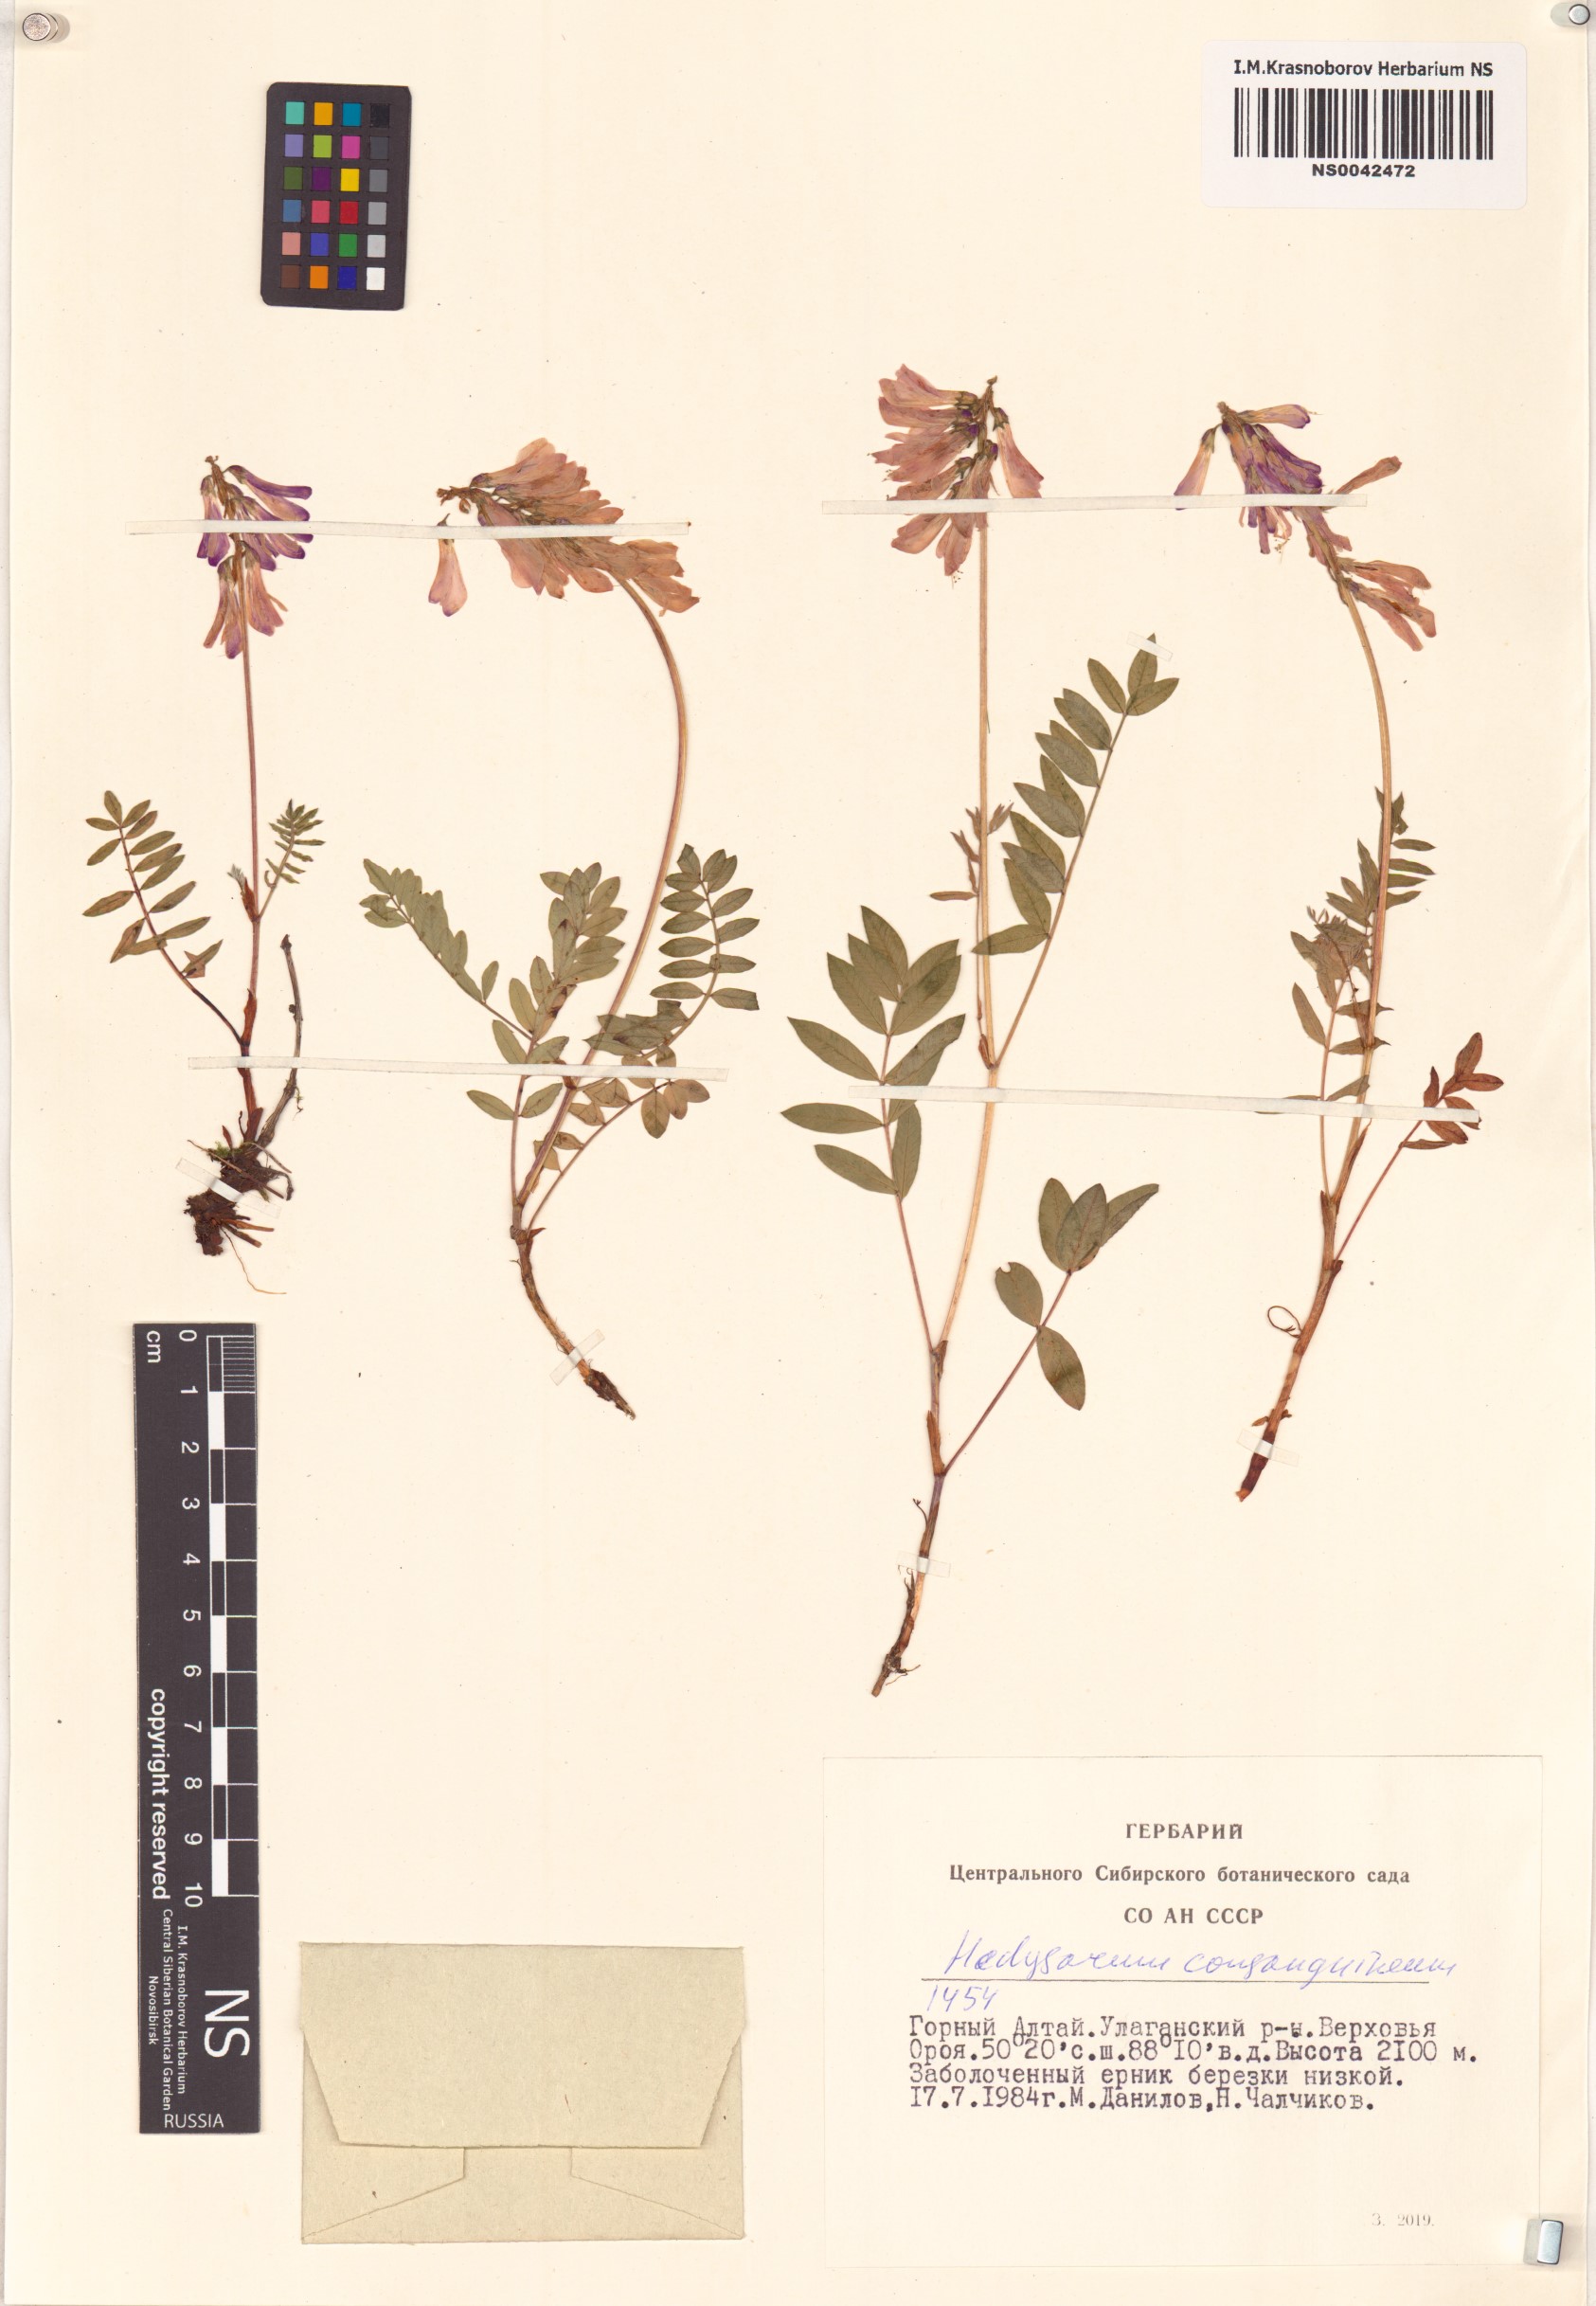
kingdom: Plantae
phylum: Tracheophyta
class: Magnoliopsida
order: Fabales
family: Fabaceae
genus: Hedysarum
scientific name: Hedysarum consanguineum
